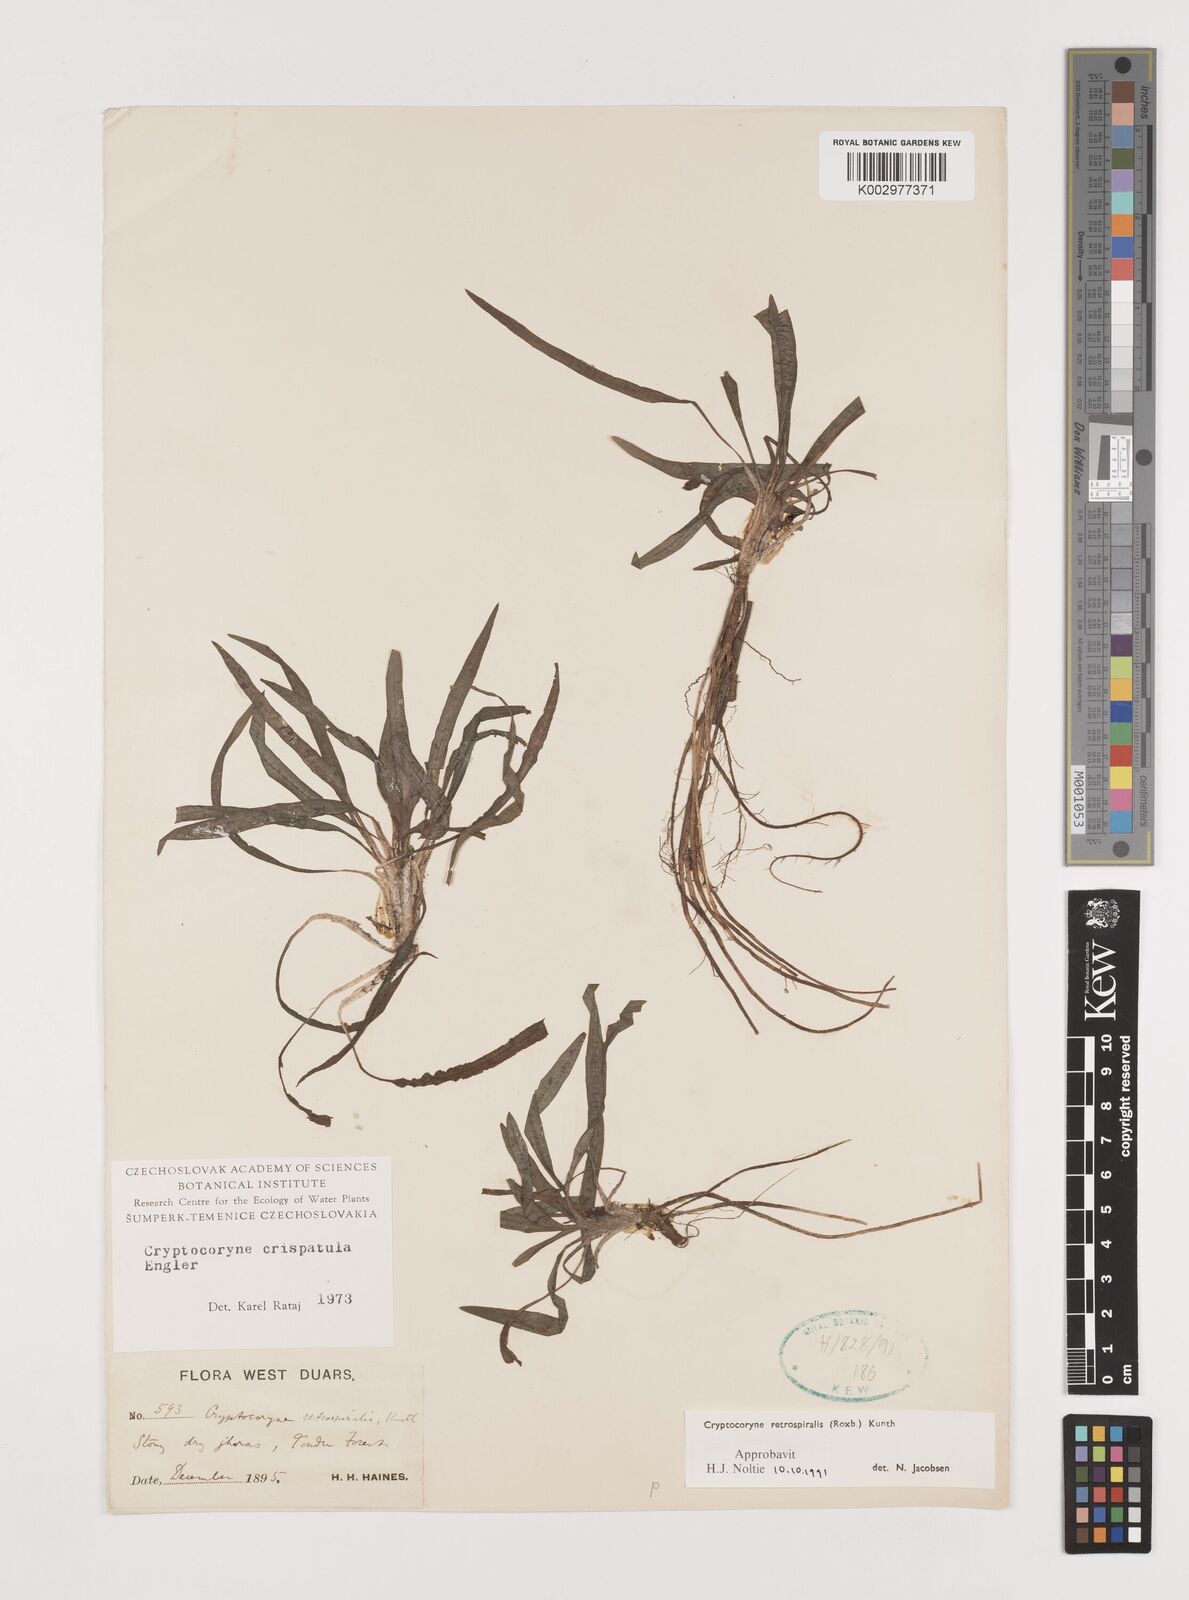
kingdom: Plantae
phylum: Tracheophyta
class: Liliopsida
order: Alismatales
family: Araceae
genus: Cryptocoryne
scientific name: Cryptocoryne retrospiralis
